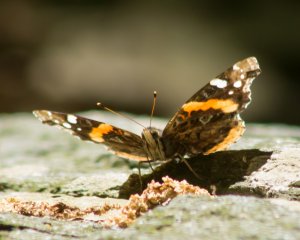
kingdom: Animalia
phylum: Arthropoda
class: Insecta
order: Lepidoptera
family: Nymphalidae
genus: Vanessa
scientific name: Vanessa atalanta
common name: Red Admiral
